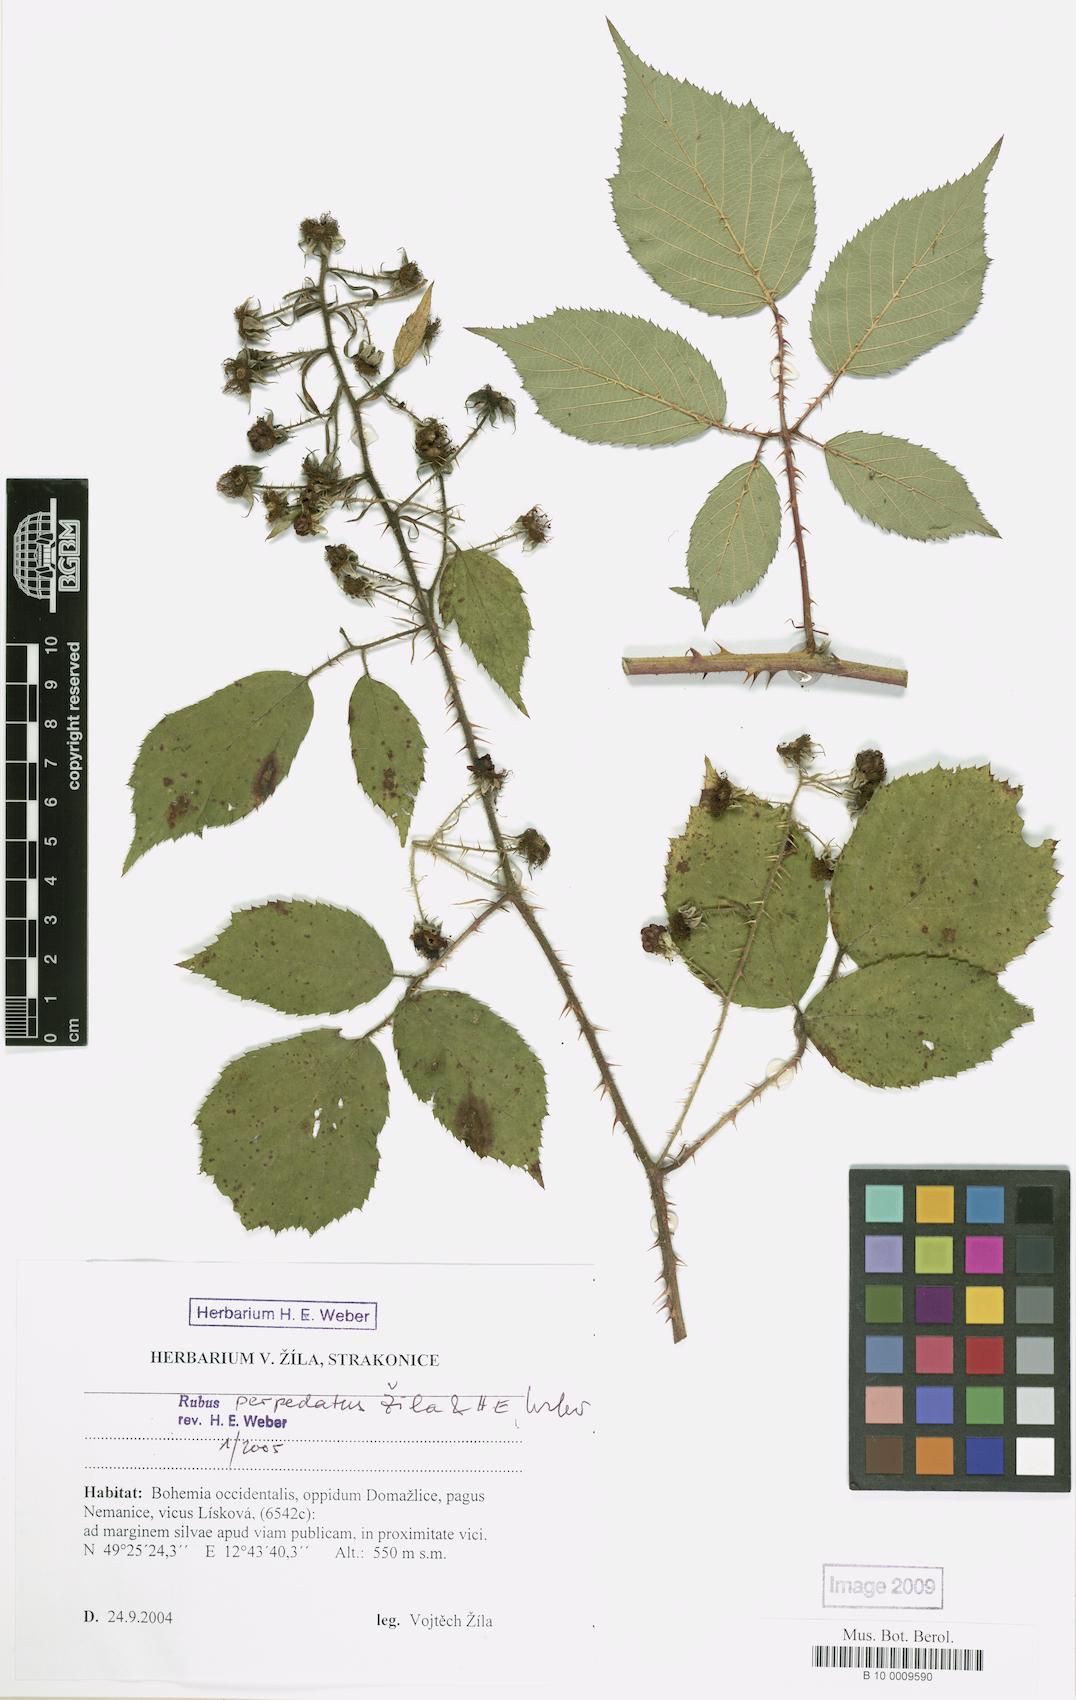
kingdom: Plantae
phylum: Tracheophyta
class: Magnoliopsida
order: Rosales
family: Rosaceae
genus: Rubus
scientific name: Rubus perpedatus
